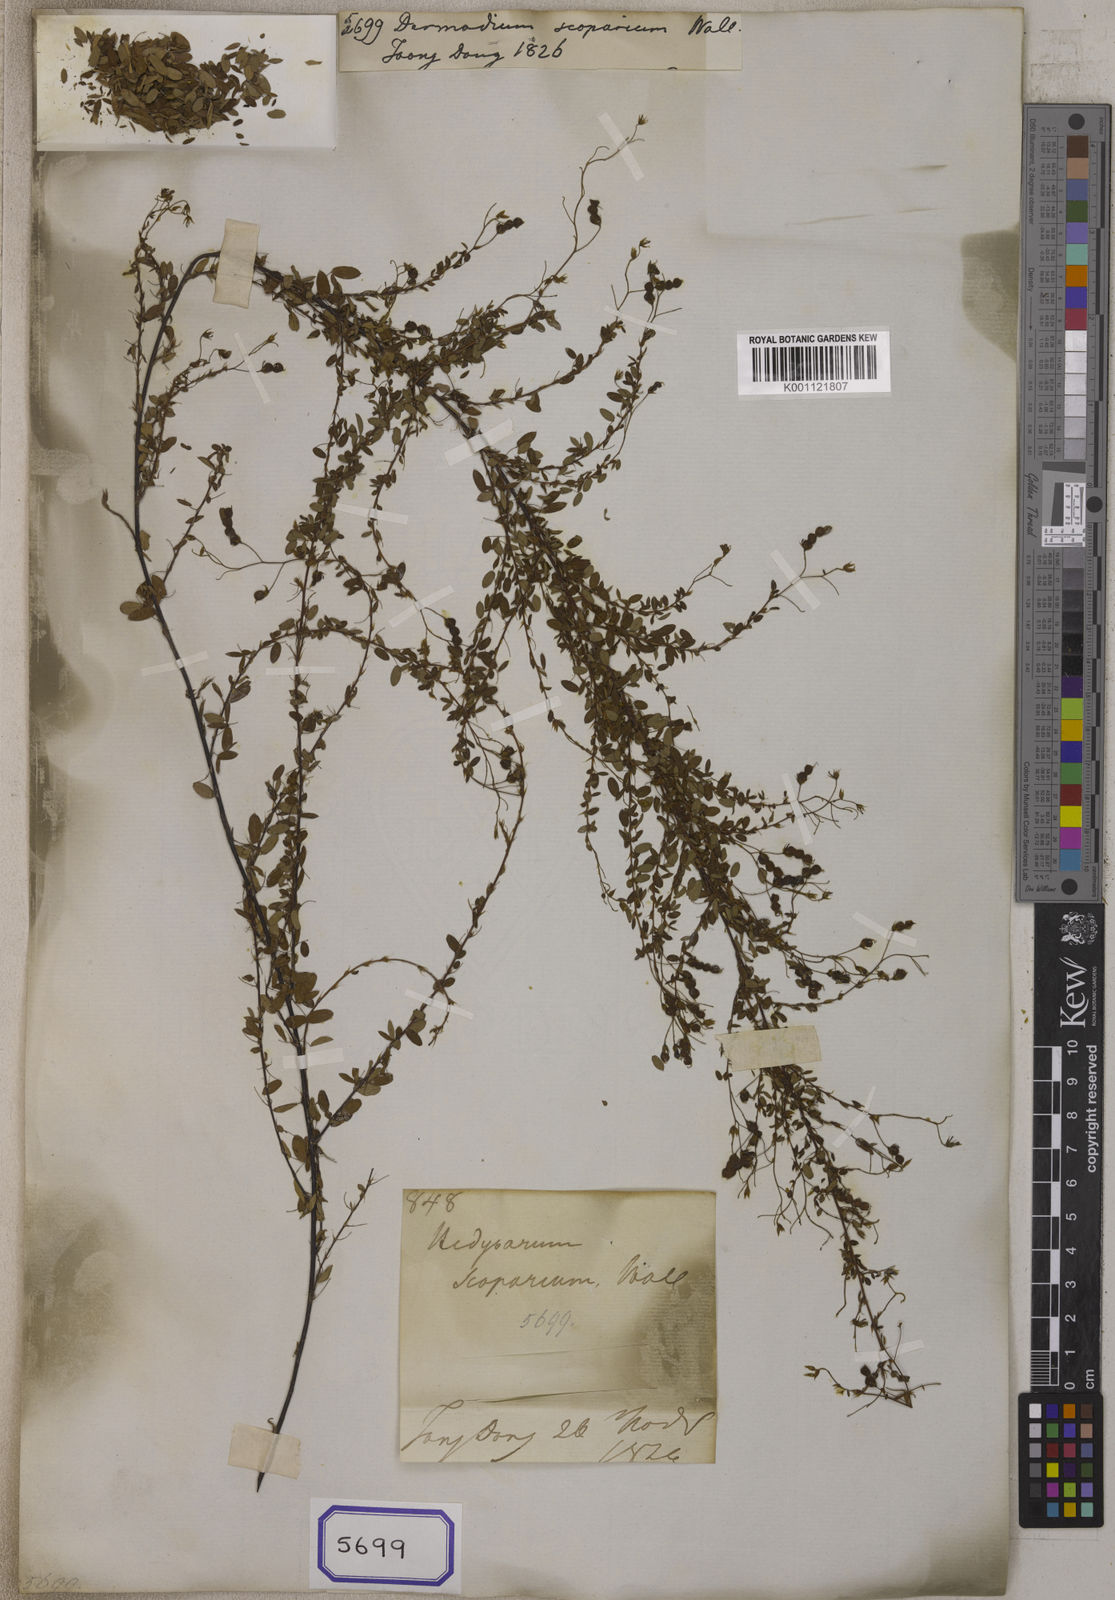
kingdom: Plantae
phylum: Tracheophyta
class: Magnoliopsida
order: Fabales
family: Fabaceae
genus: Leptodesmia
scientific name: Leptodesmia microphylla
